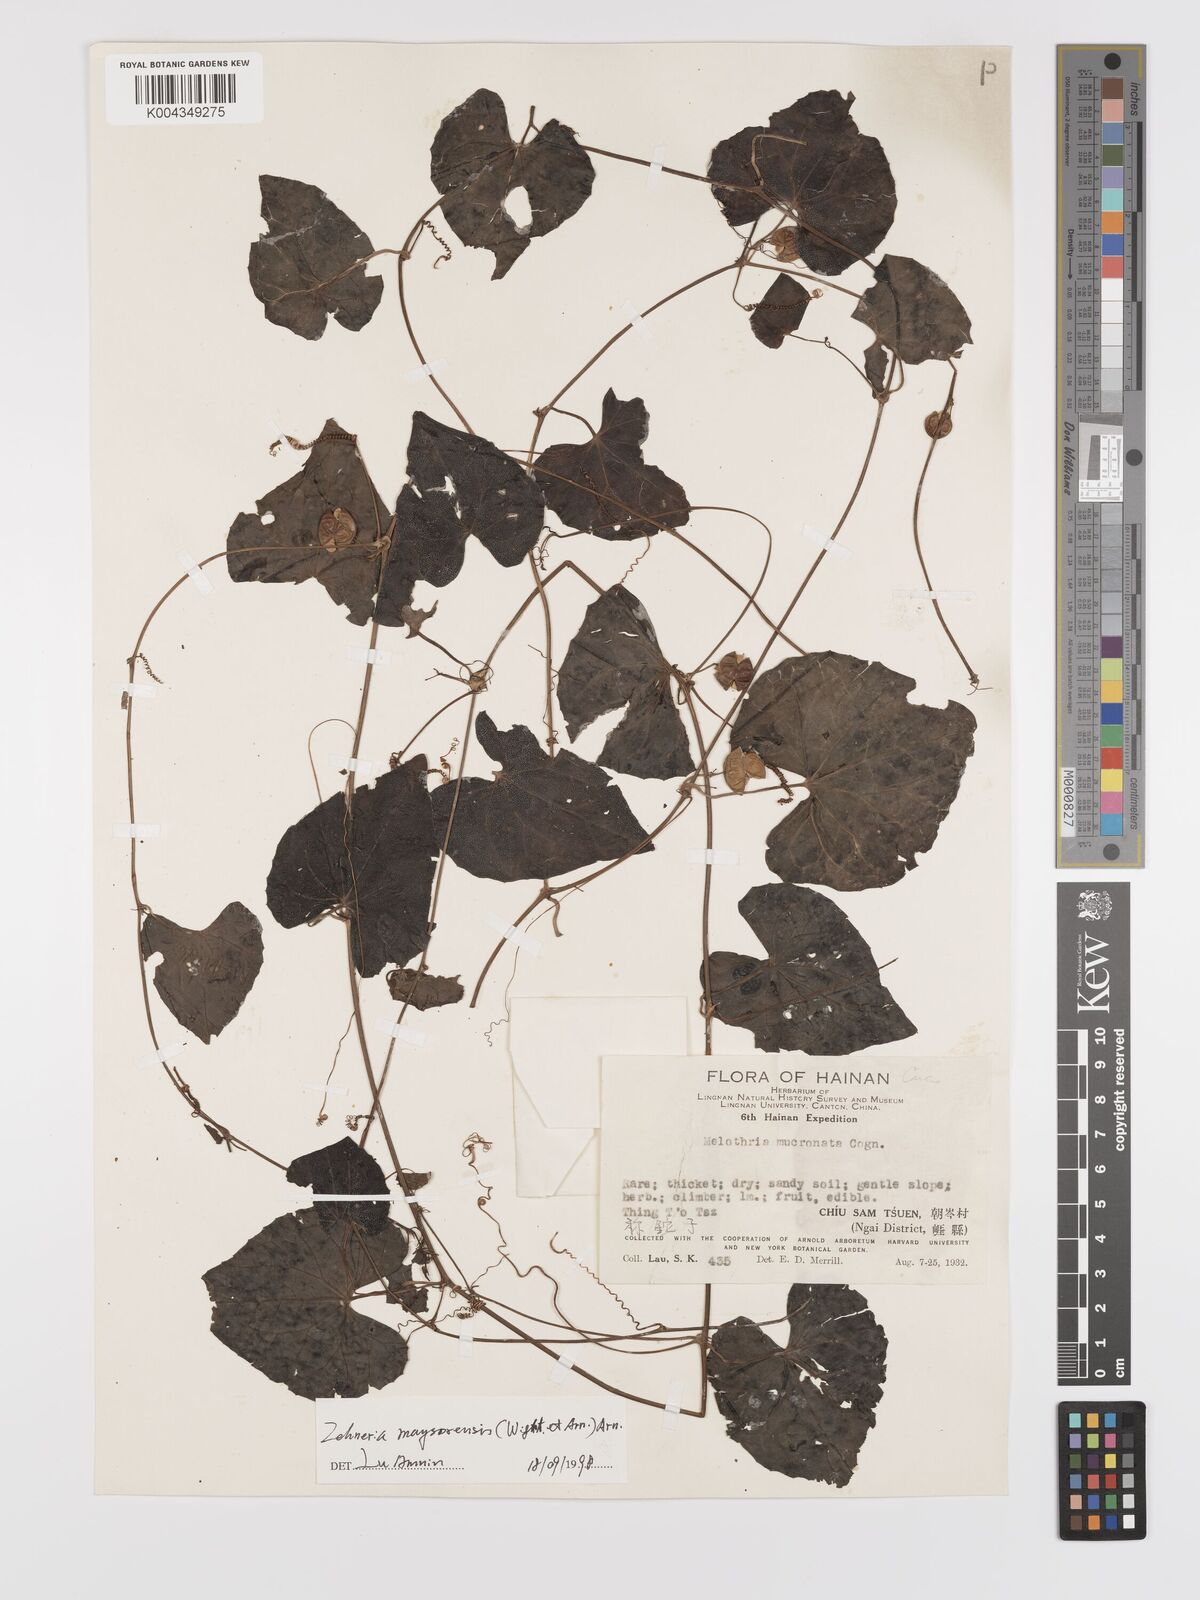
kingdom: Plantae
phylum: Tracheophyta
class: Magnoliopsida
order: Cucurbitales
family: Cucurbitaceae
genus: Zehneria
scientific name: Zehneria maysorensis
